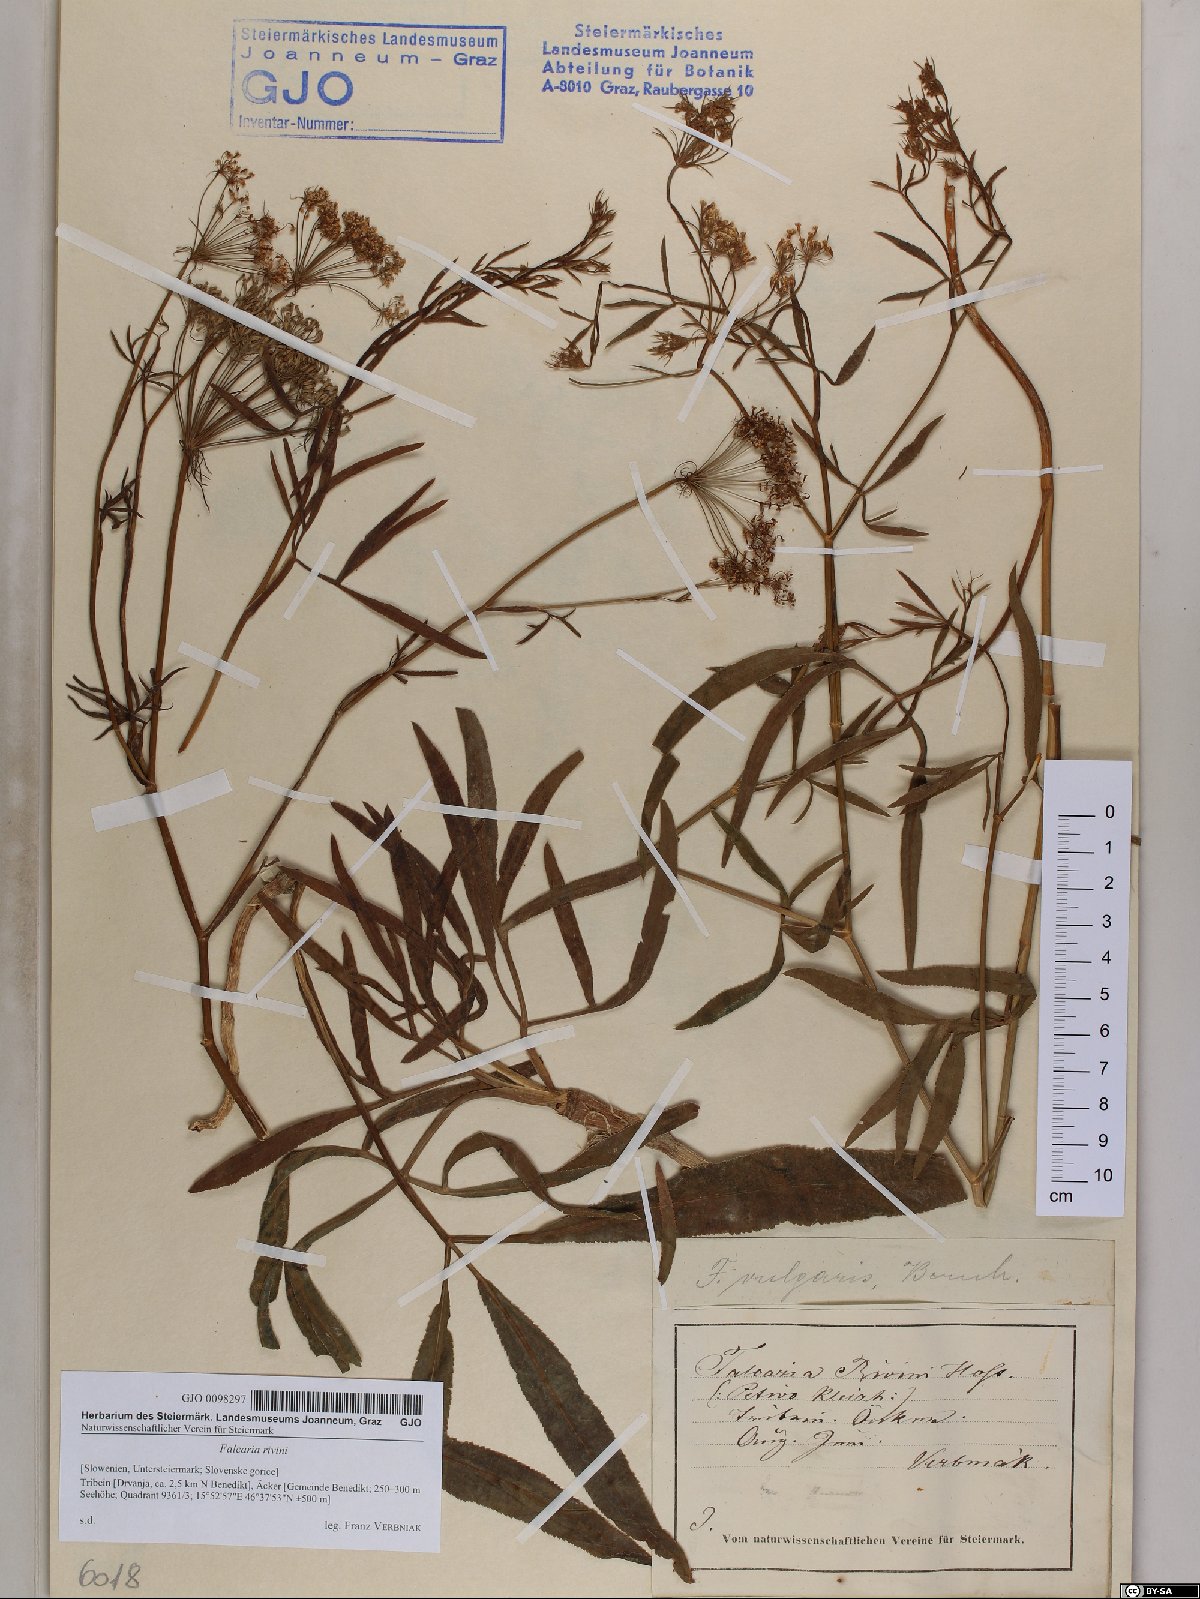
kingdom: Plantae
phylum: Tracheophyta
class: Magnoliopsida
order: Apiales
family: Apiaceae
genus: Falcaria
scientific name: Falcaria vulgaris
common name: Longleaf
